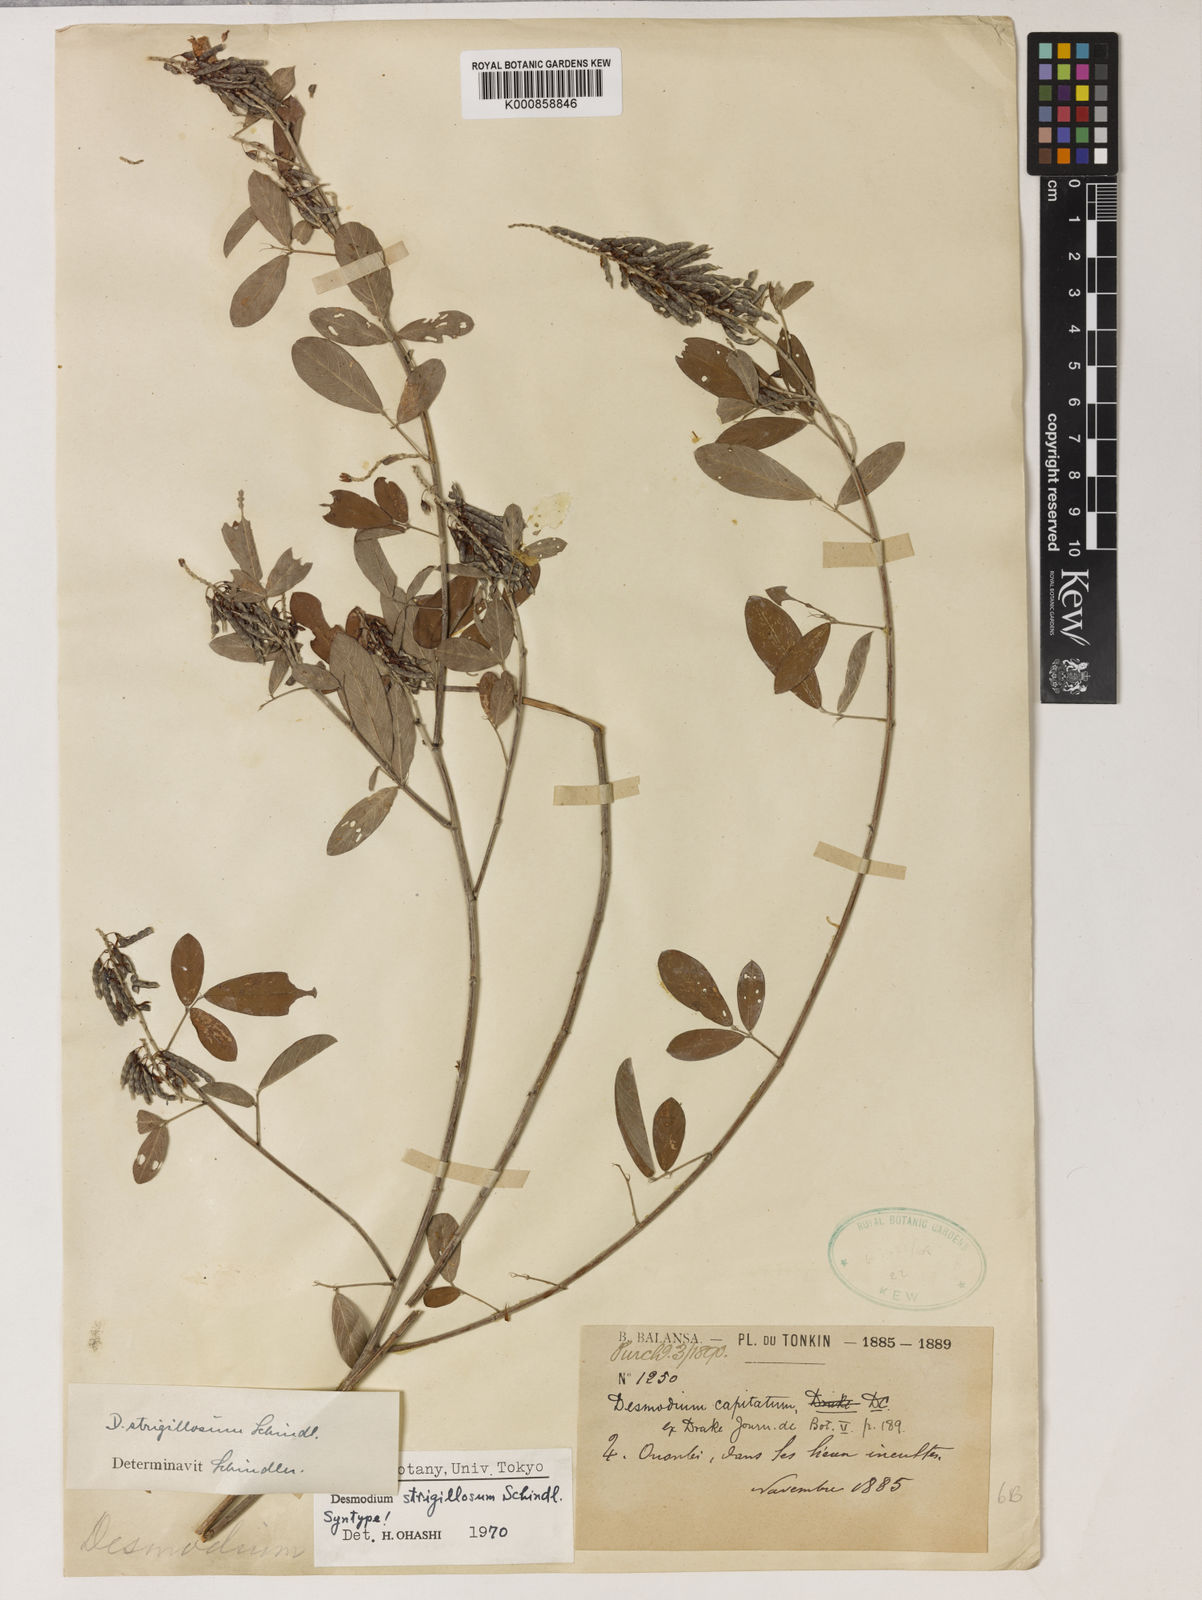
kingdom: Plantae
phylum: Tracheophyta
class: Magnoliopsida
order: Fabales
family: Fabaceae
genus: Grona
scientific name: Grona strigillosa
